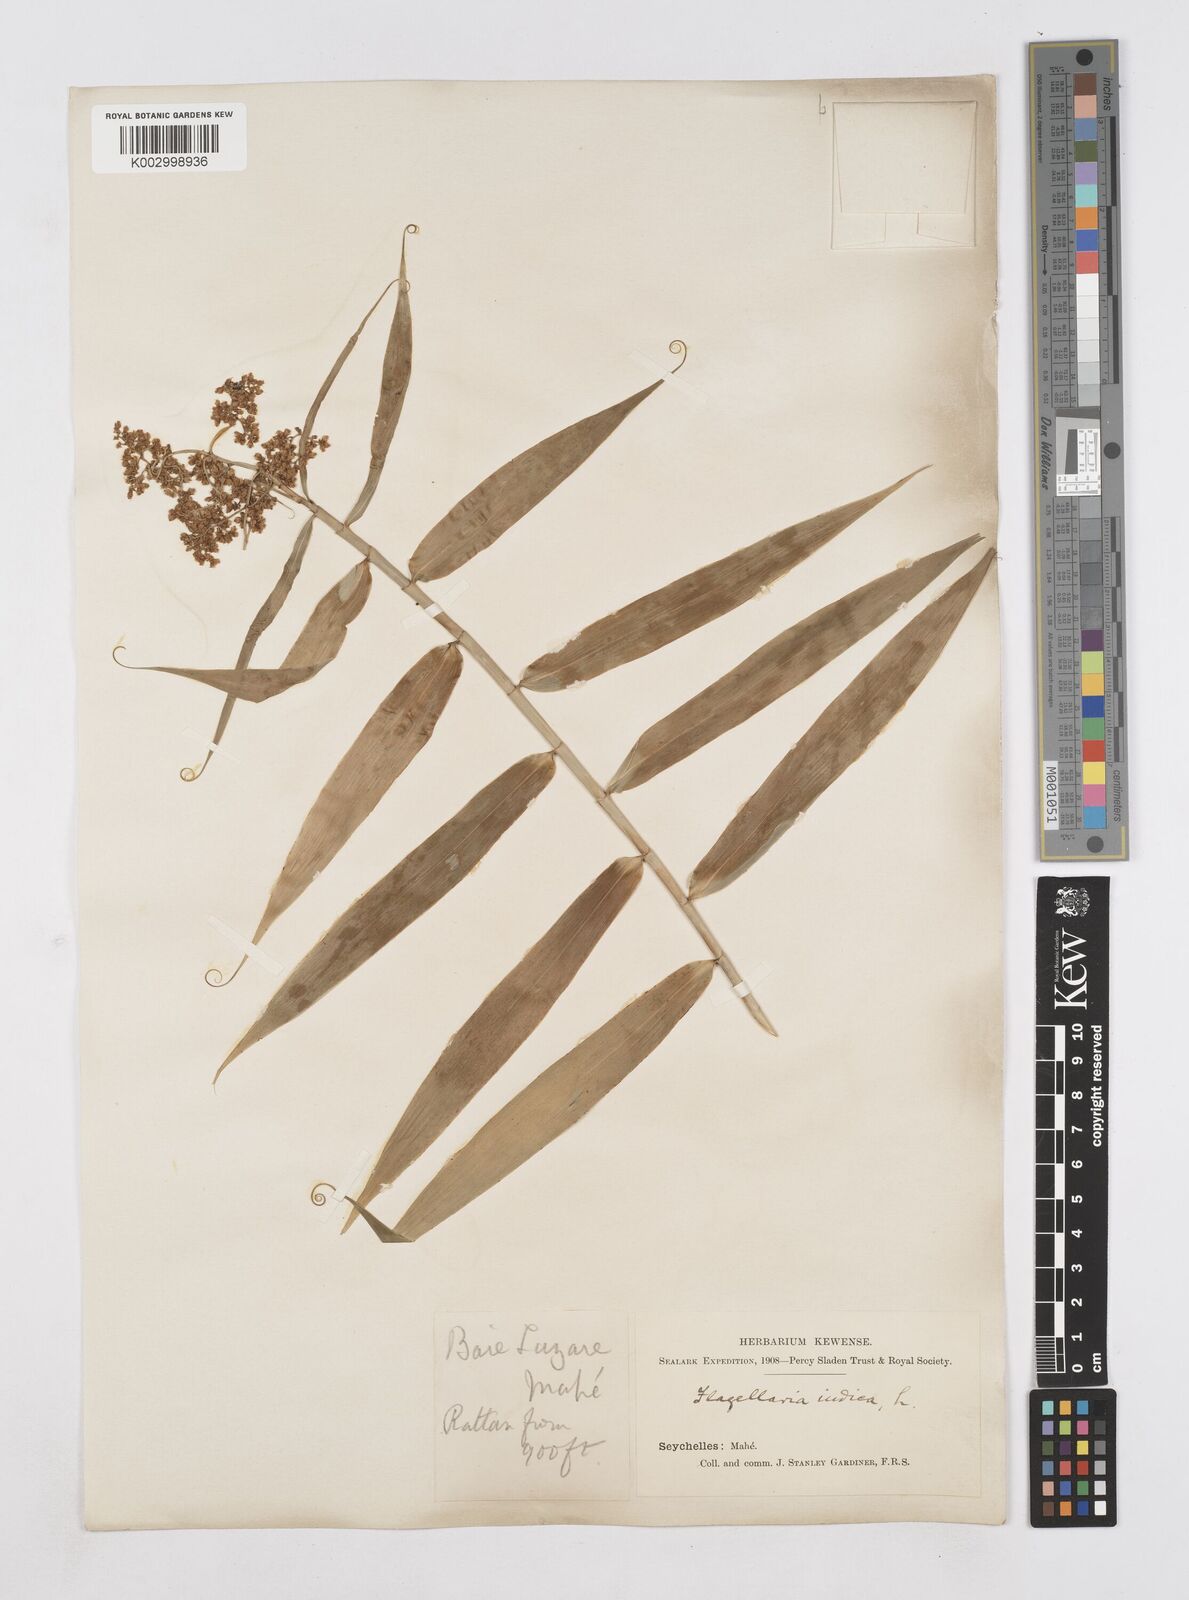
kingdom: Plantae
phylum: Tracheophyta
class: Liliopsida
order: Poales
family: Flagellariaceae
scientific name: Flagellariaceae
